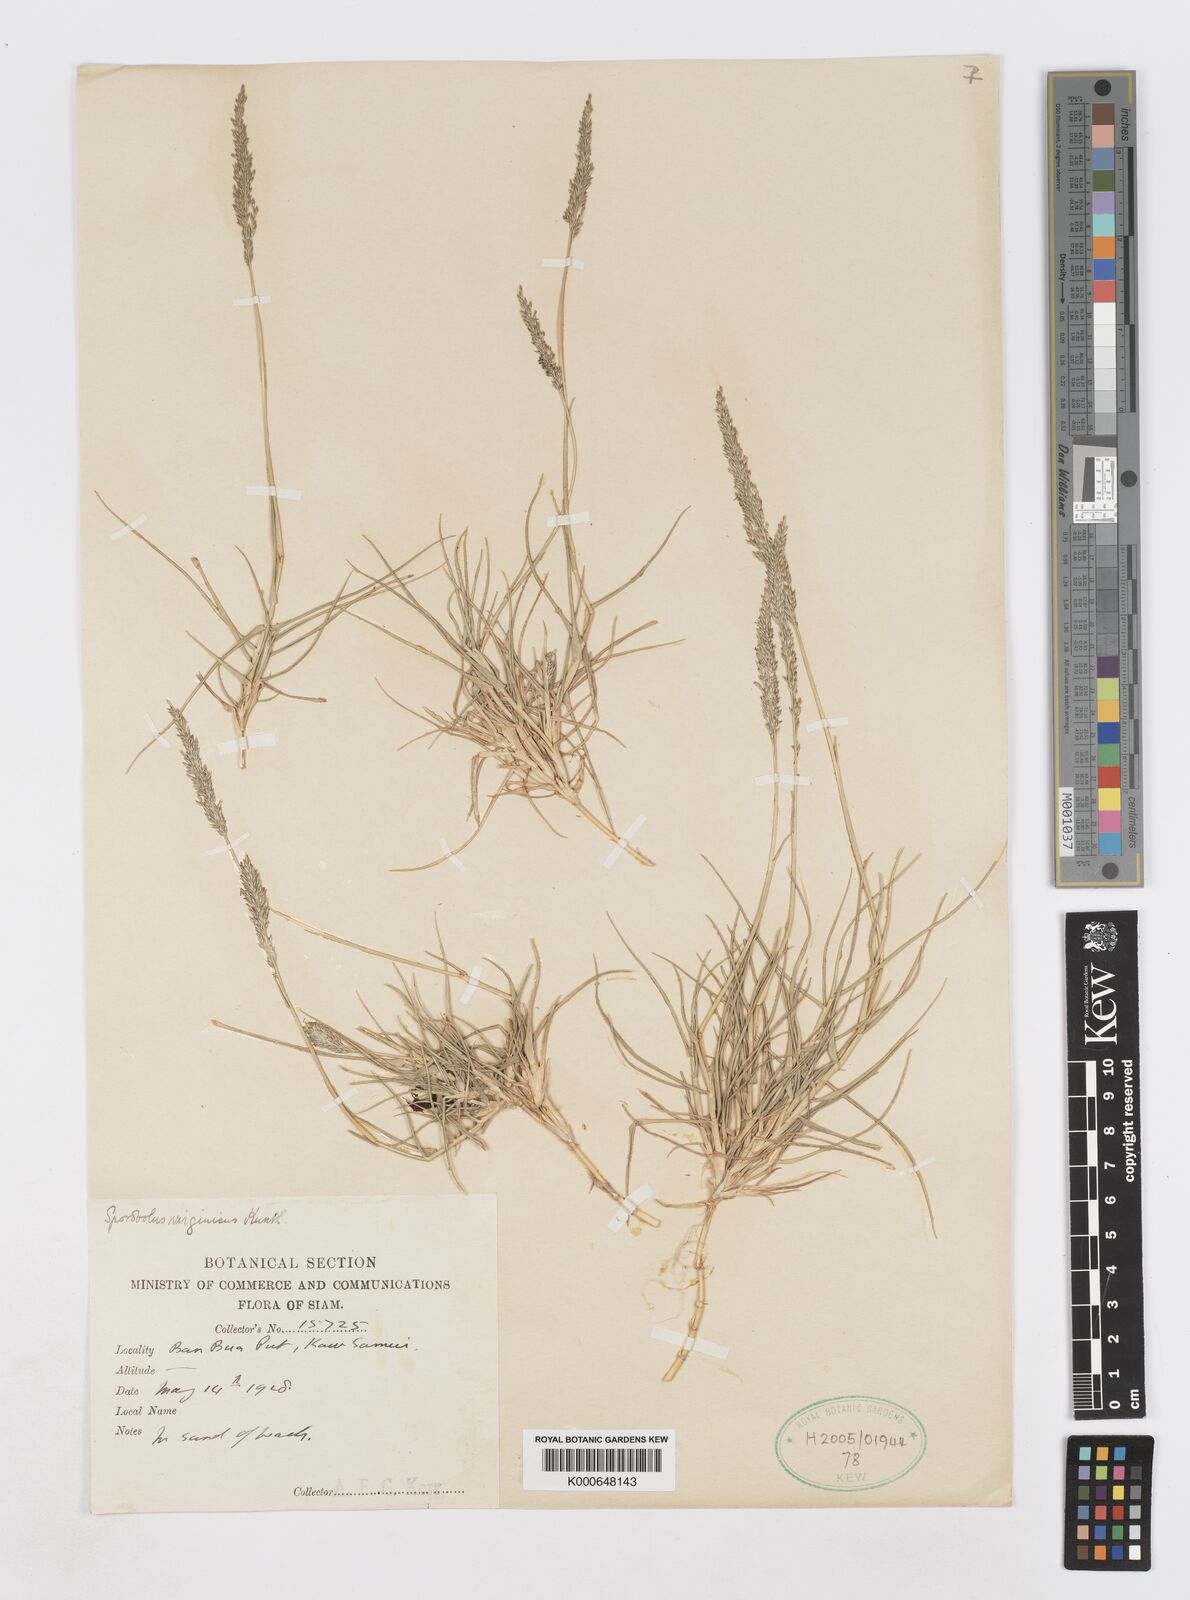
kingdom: Plantae
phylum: Tracheophyta
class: Liliopsida
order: Poales
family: Poaceae
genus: Sporobolus
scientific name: Sporobolus virginicus
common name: Beach dropseed
